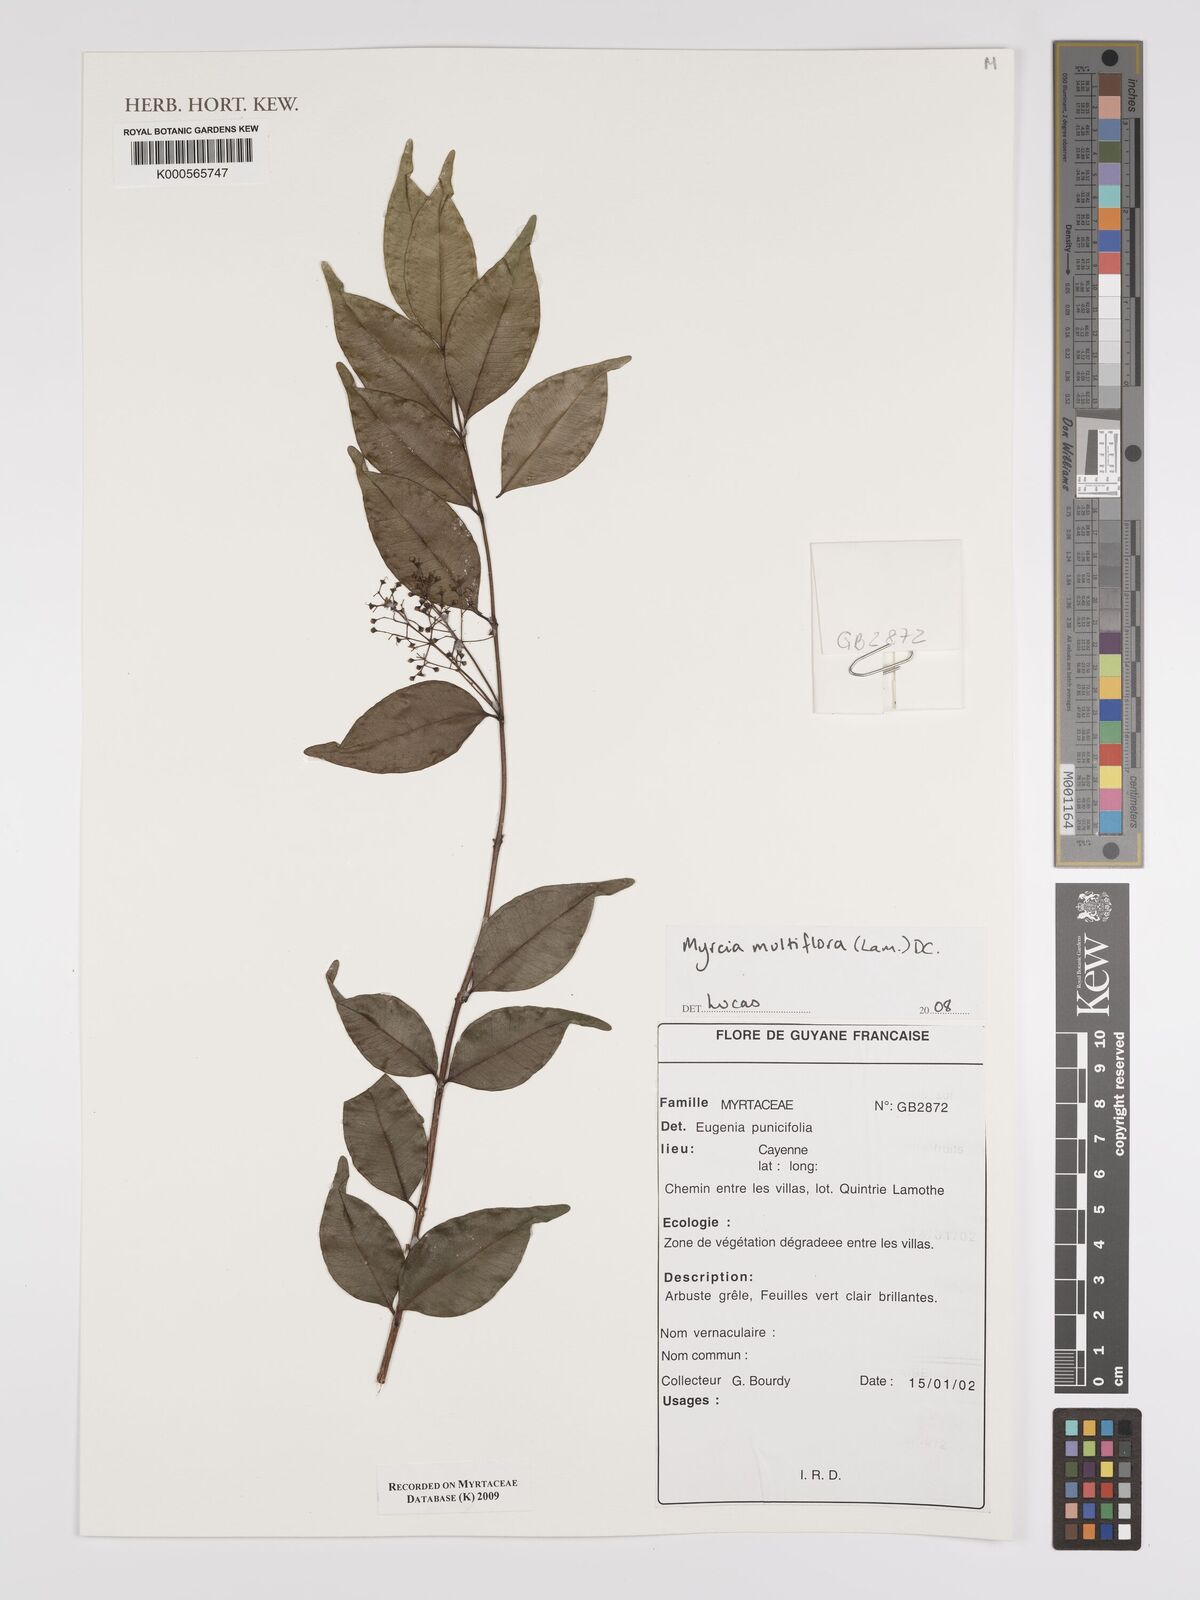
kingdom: Plantae
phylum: Tracheophyta
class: Magnoliopsida
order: Myrtales
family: Myrtaceae
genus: Myrcia
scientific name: Myrcia multiflora
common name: Pedra hume
